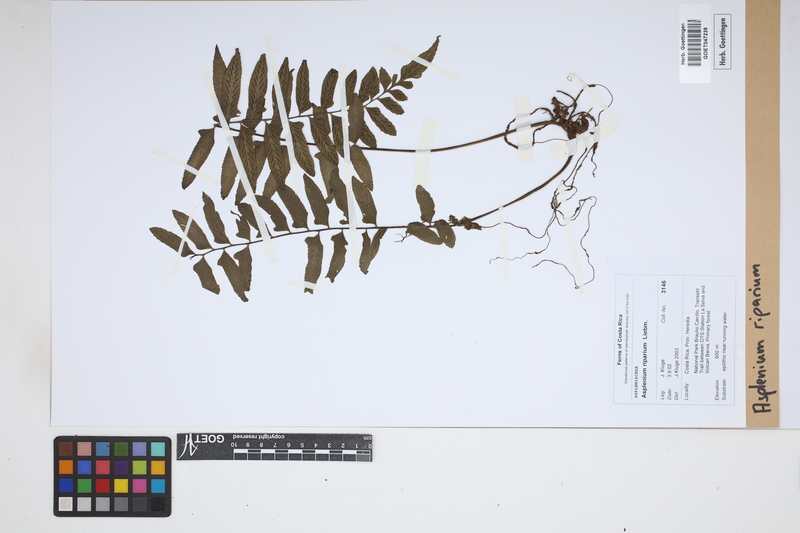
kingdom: Plantae
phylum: Tracheophyta
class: Polypodiopsida
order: Polypodiales
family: Aspleniaceae
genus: Hymenasplenium
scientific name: Hymenasplenium riparium
